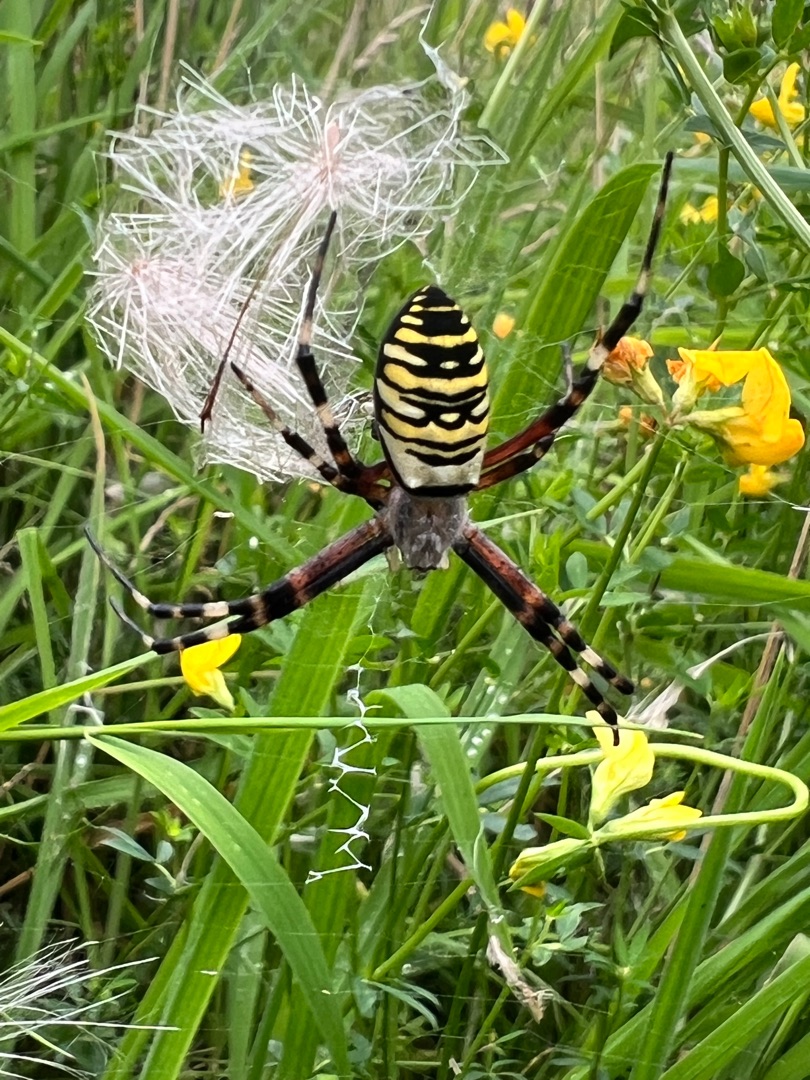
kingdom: Animalia
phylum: Arthropoda
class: Arachnida
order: Araneae
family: Araneidae
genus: Argiope
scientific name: Argiope bruennichi
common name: Hvepseedderkop
